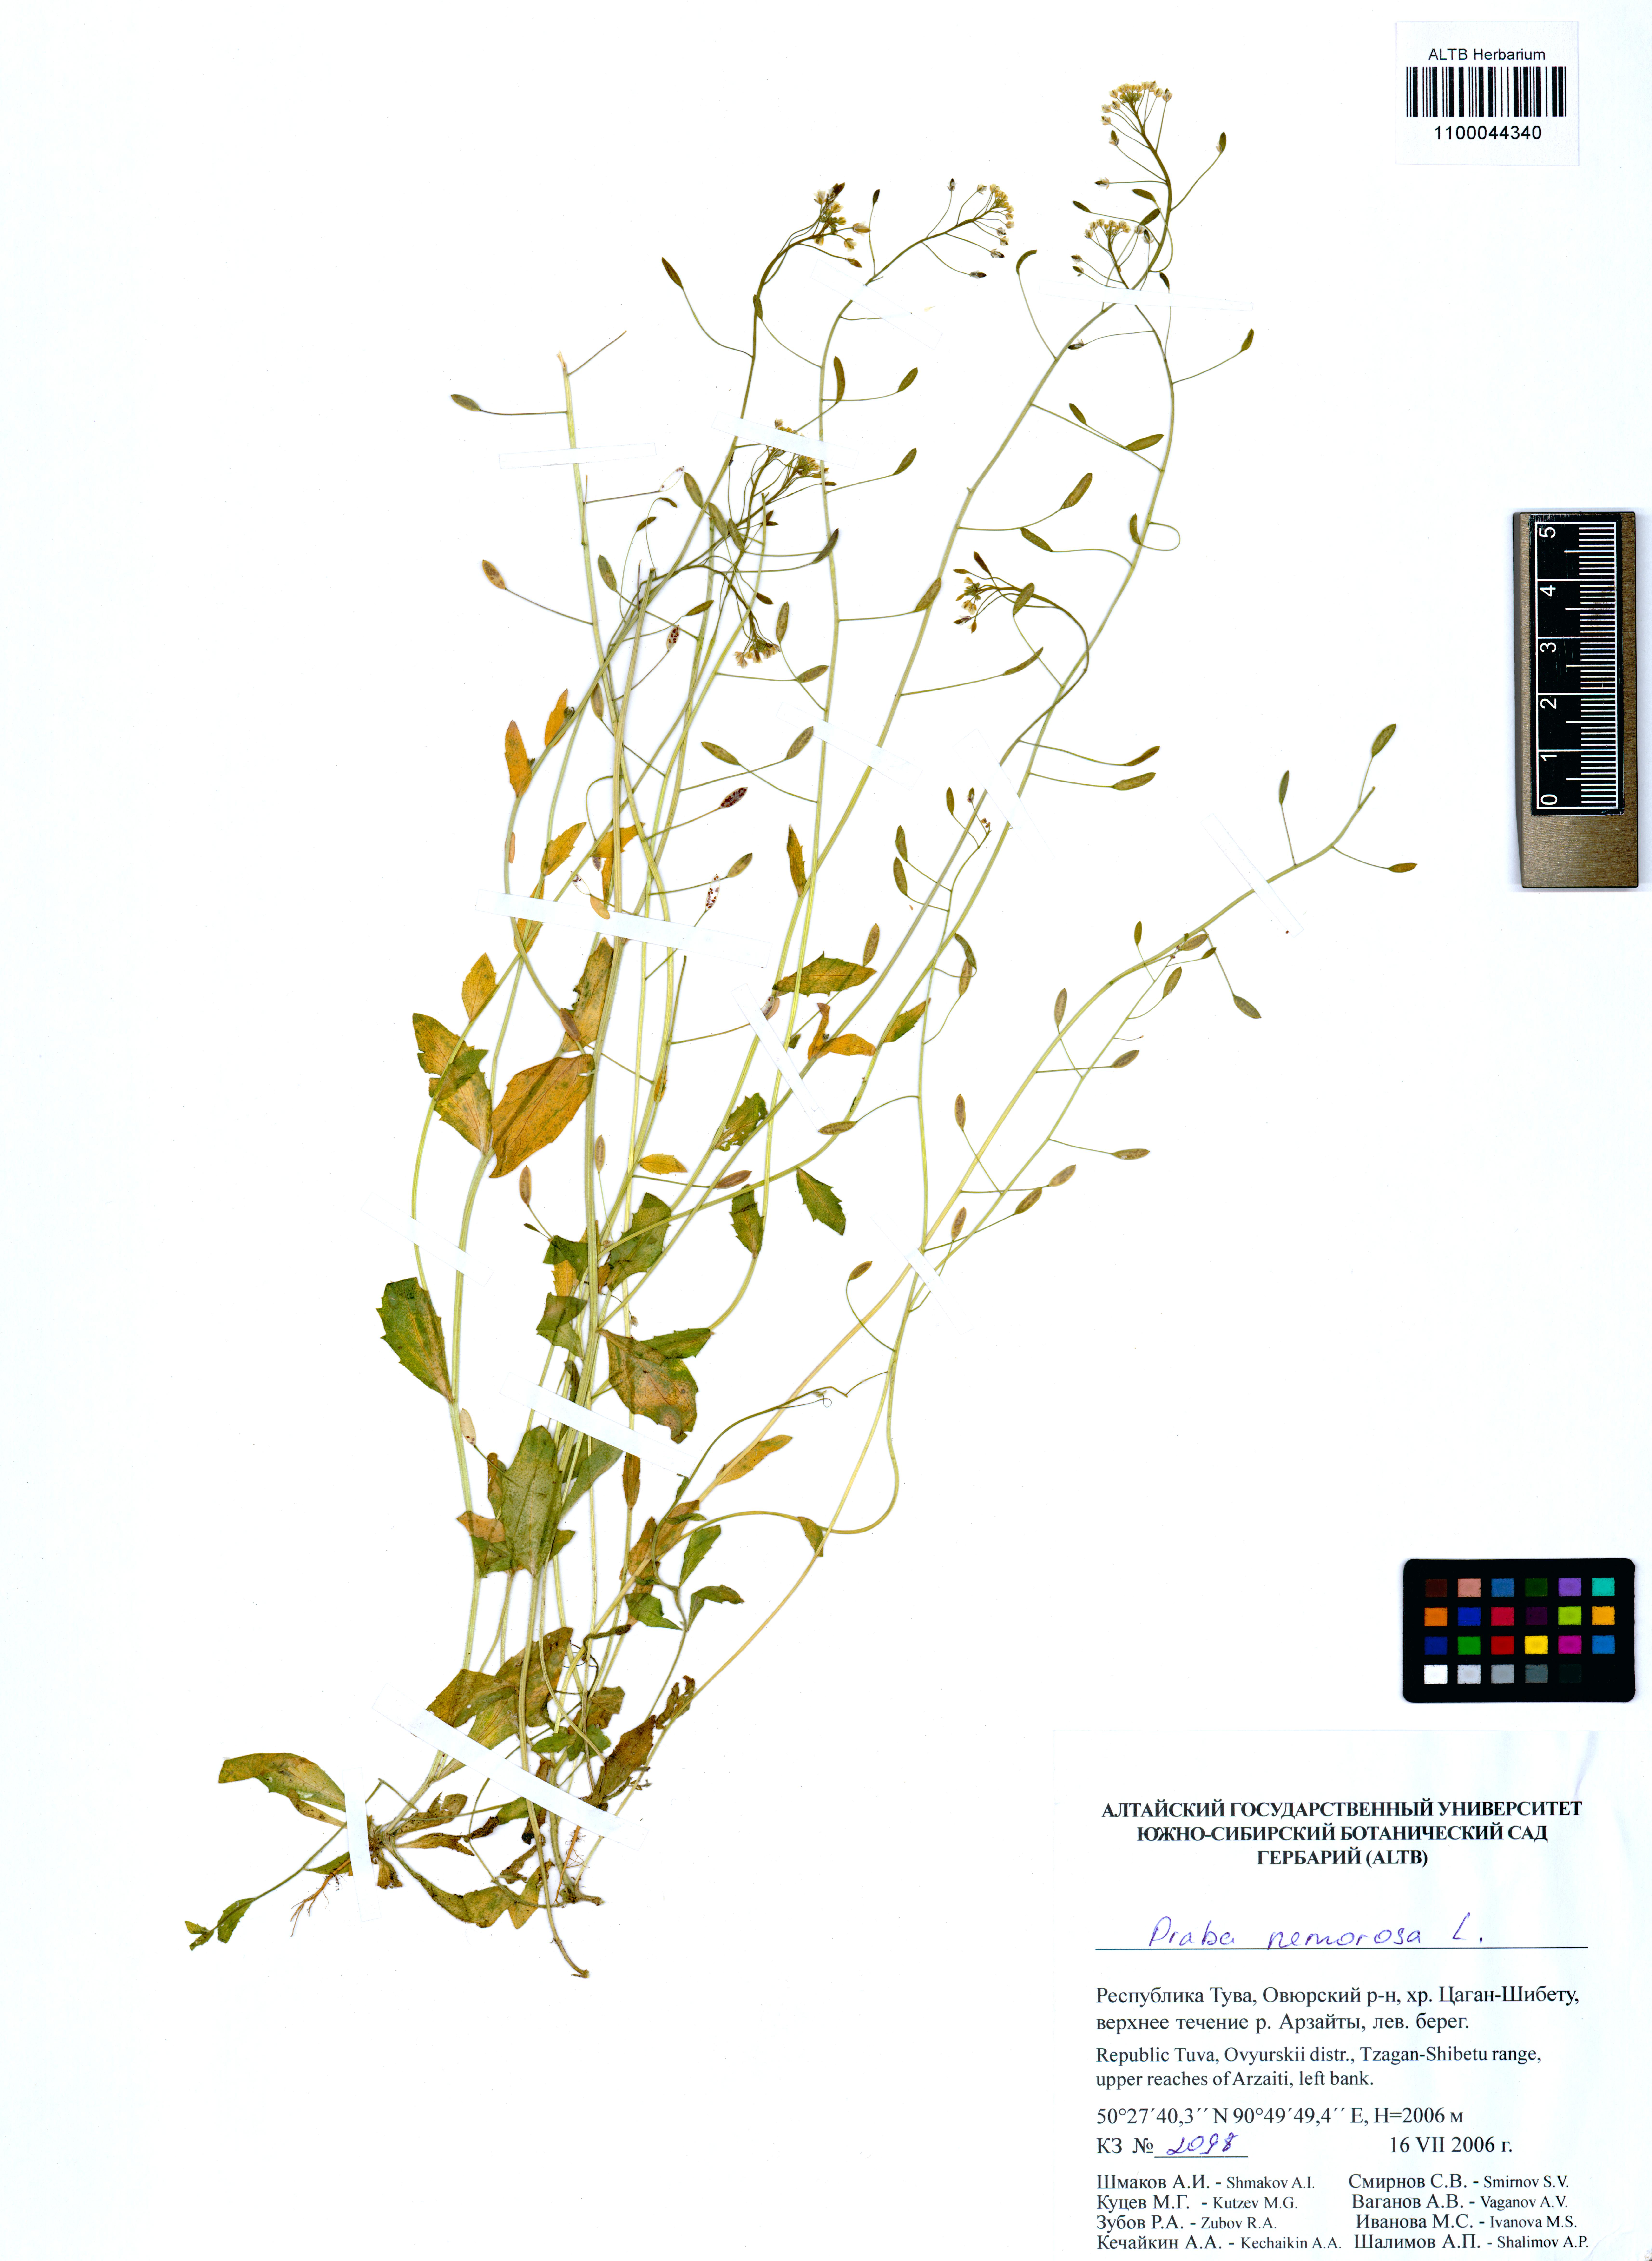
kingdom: Plantae
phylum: Tracheophyta
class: Magnoliopsida
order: Brassicales
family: Brassicaceae
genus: Draba
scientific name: Draba nemorosa
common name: Wood whitlow-grass
